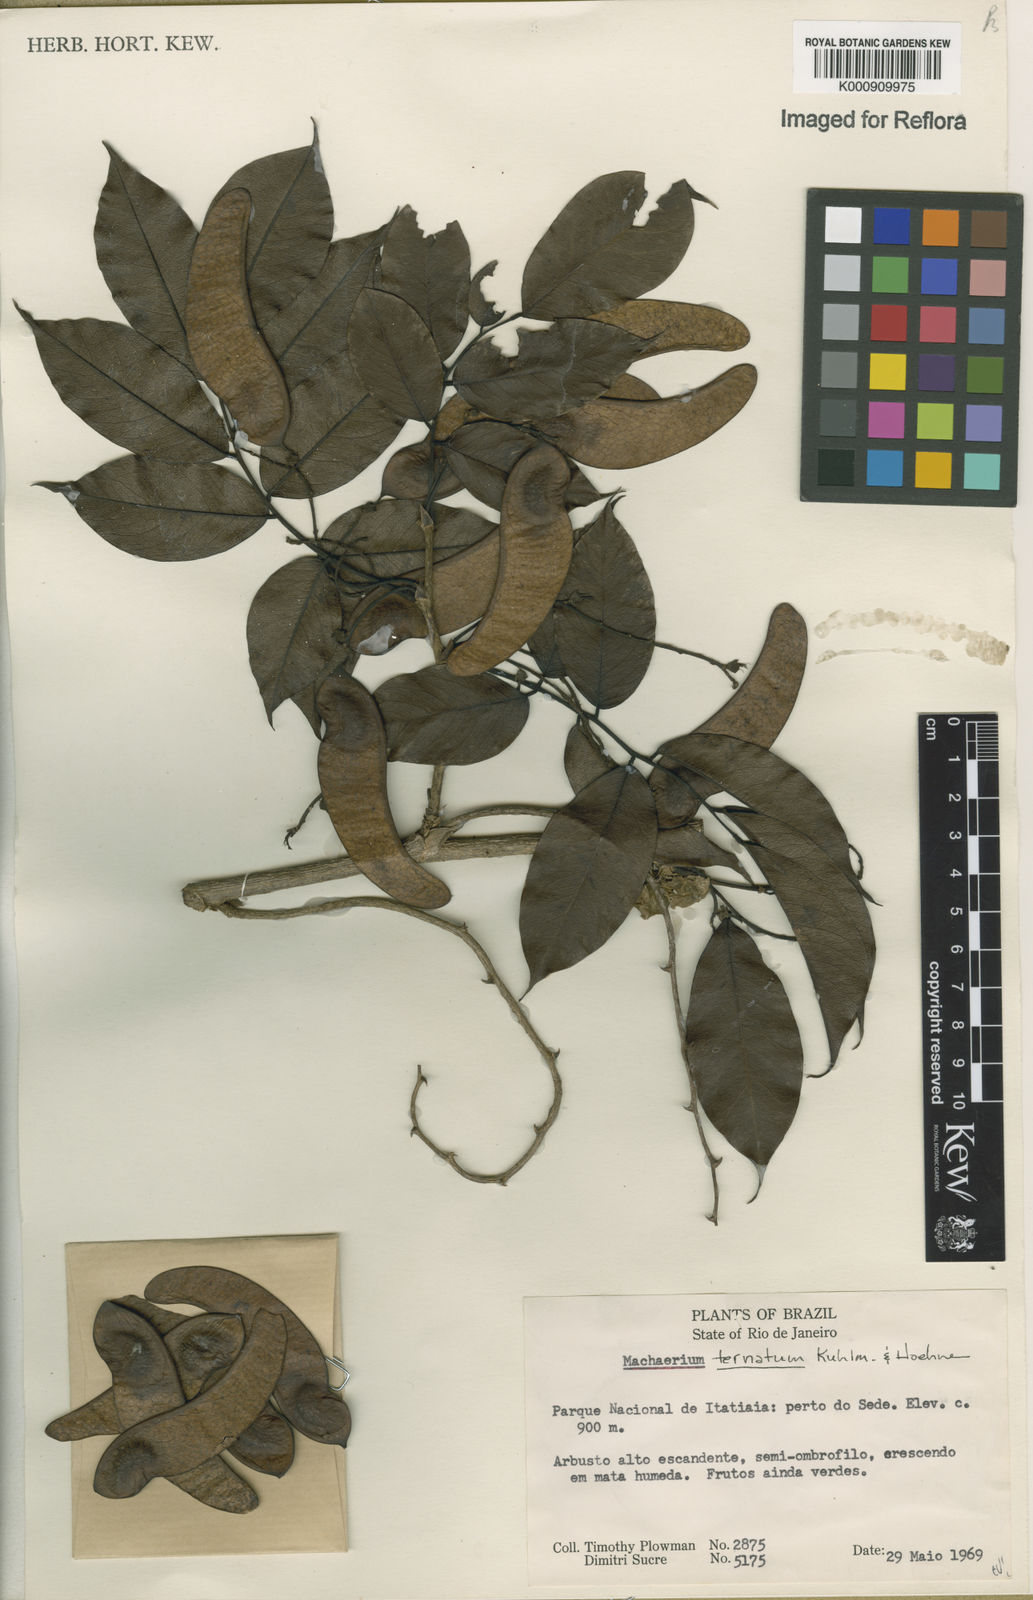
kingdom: Plantae
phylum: Tracheophyta
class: Magnoliopsida
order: Fabales
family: Fabaceae
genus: Machaerium
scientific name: Machaerium ternatum
